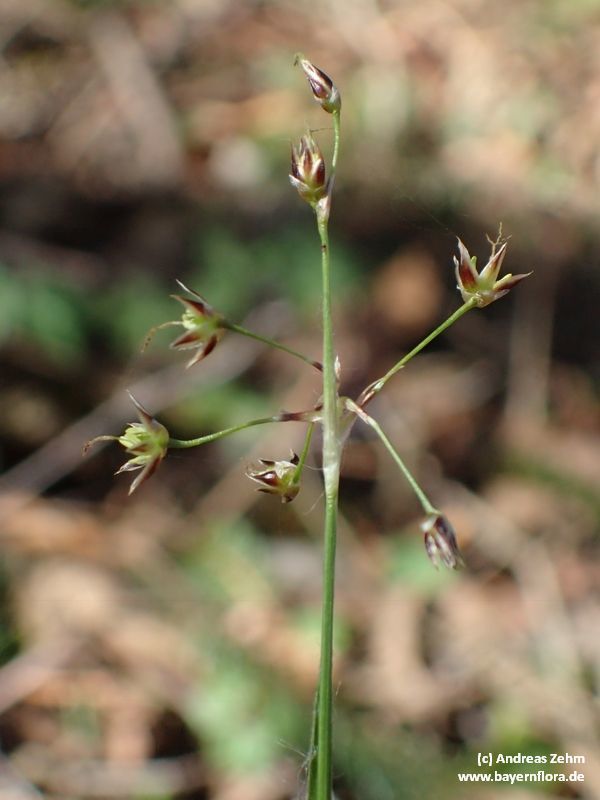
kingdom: Plantae
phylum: Tracheophyta
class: Liliopsida
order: Poales
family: Juncaceae
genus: Luzula
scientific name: Luzula pilosa
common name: Hairy wood-rush
